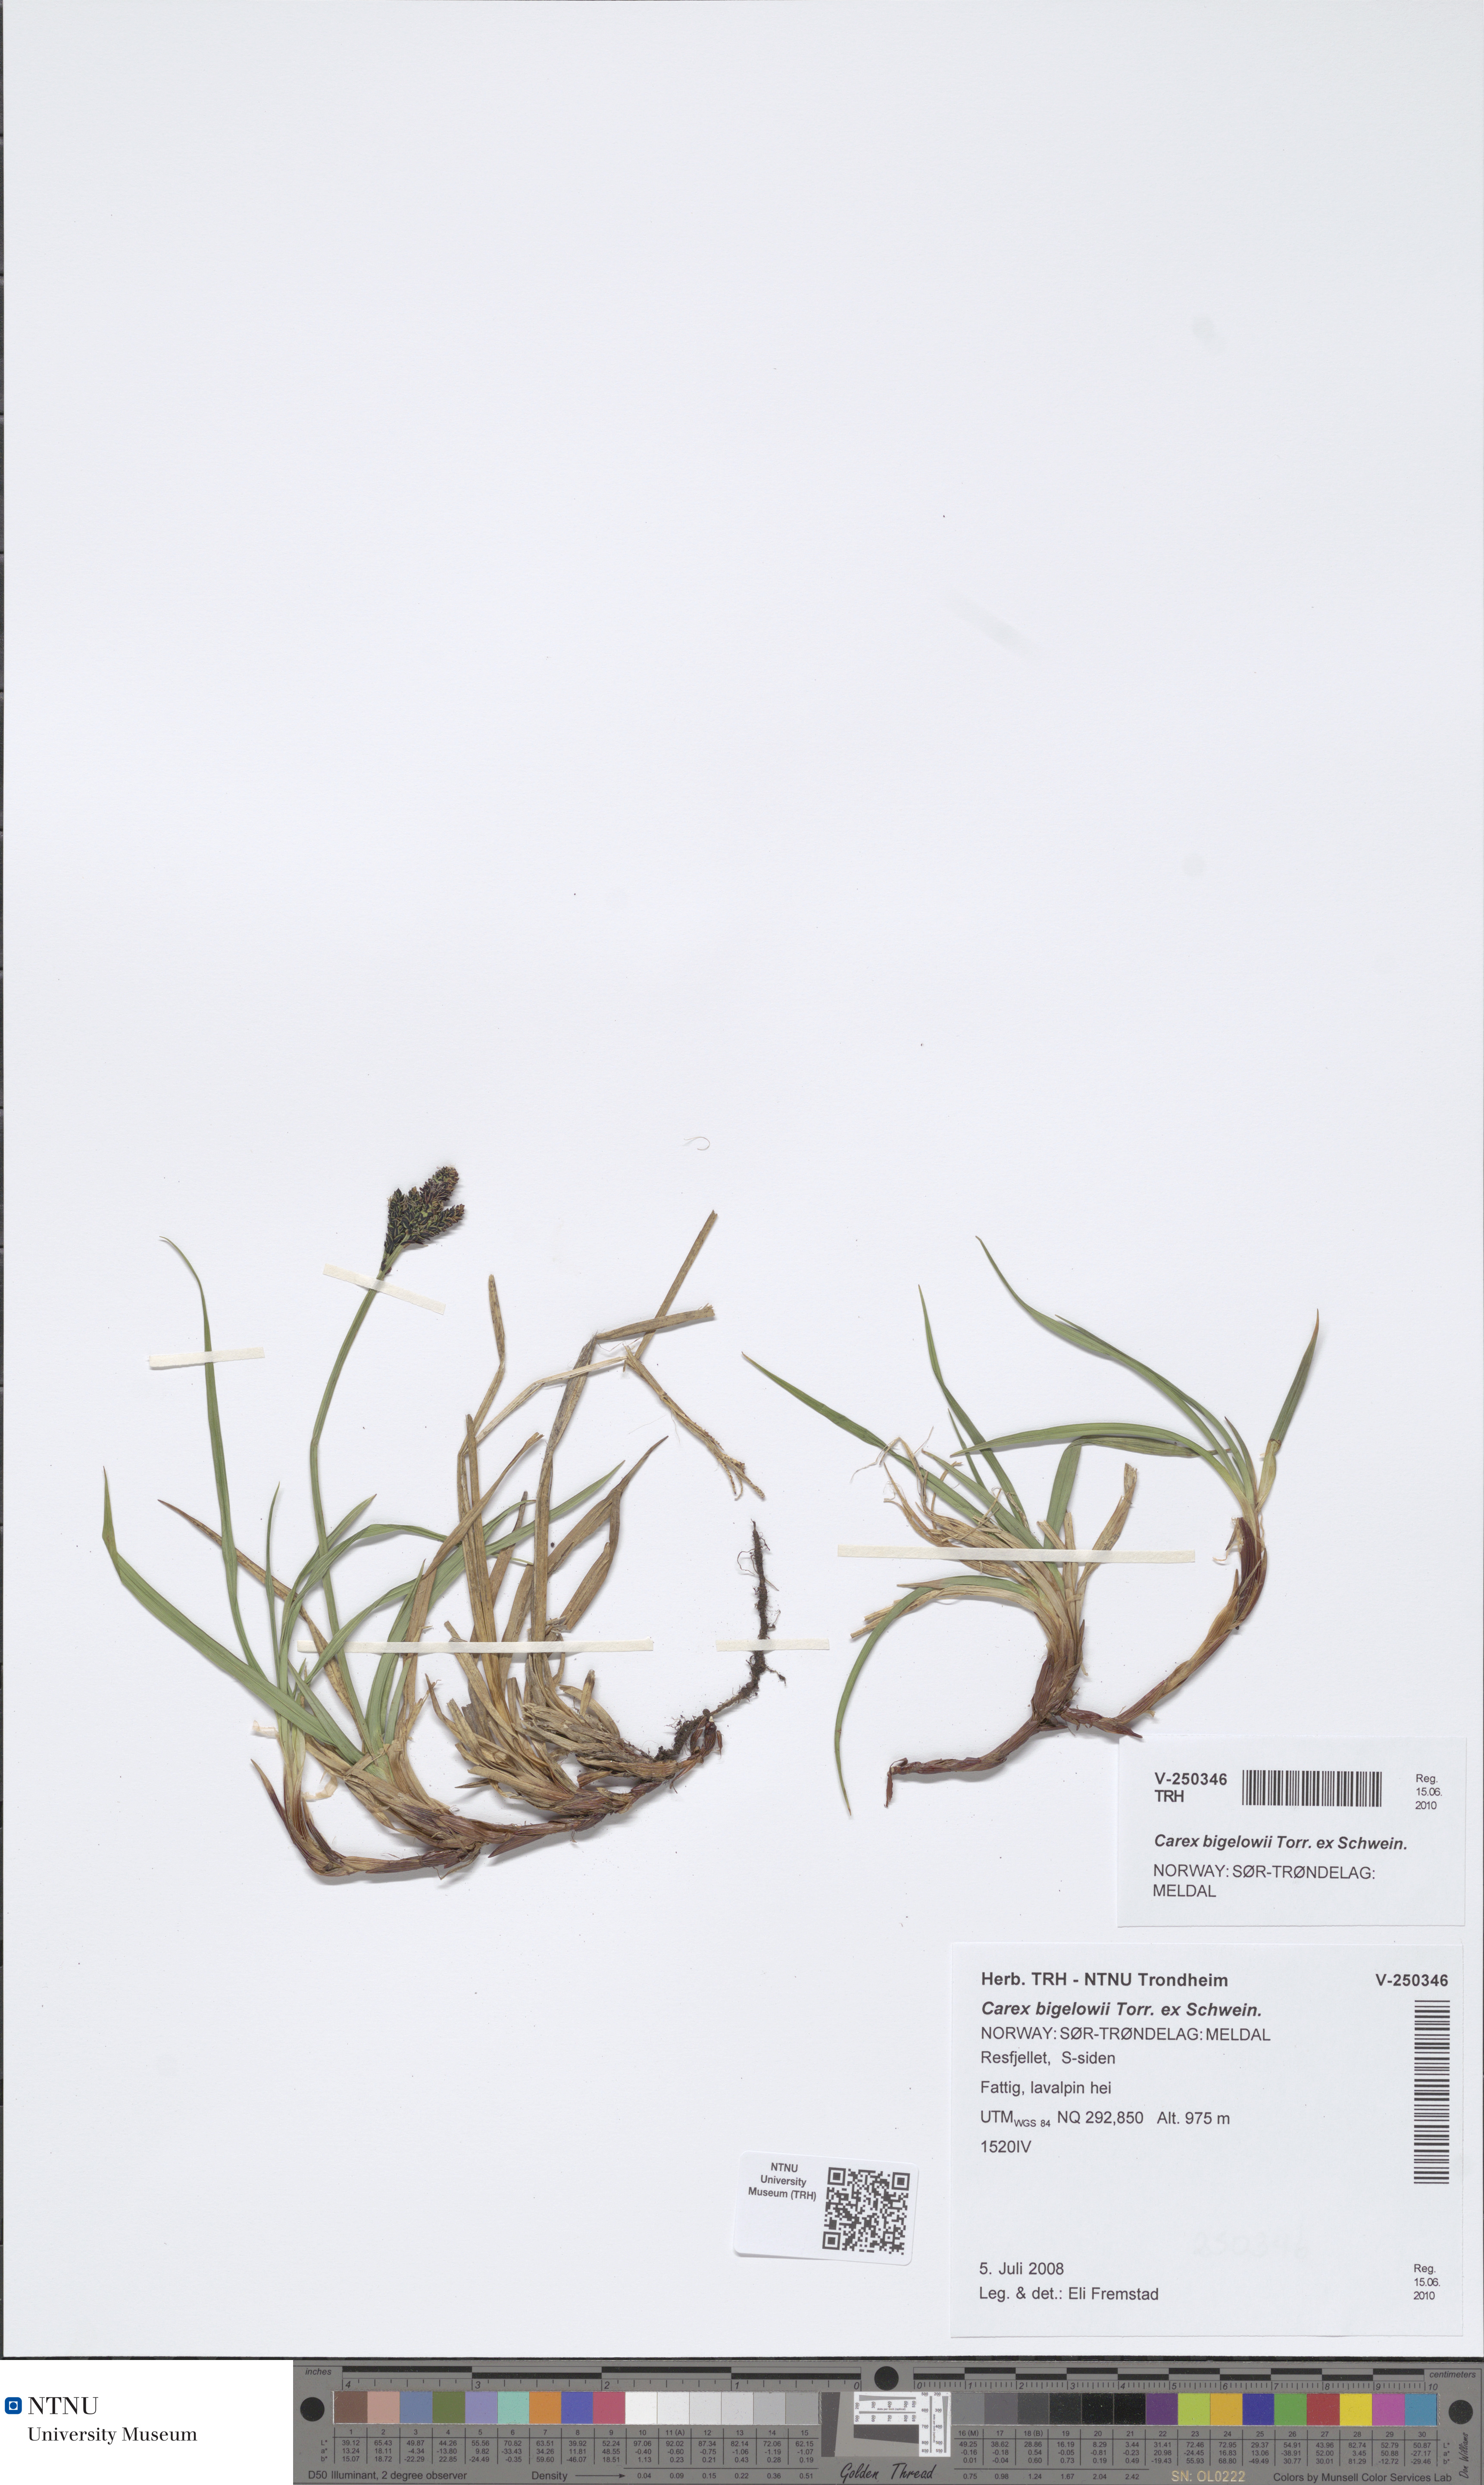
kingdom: Plantae
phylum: Tracheophyta
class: Liliopsida
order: Poales
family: Cyperaceae
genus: Carex
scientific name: Carex bigelowii
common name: Stiff sedge
